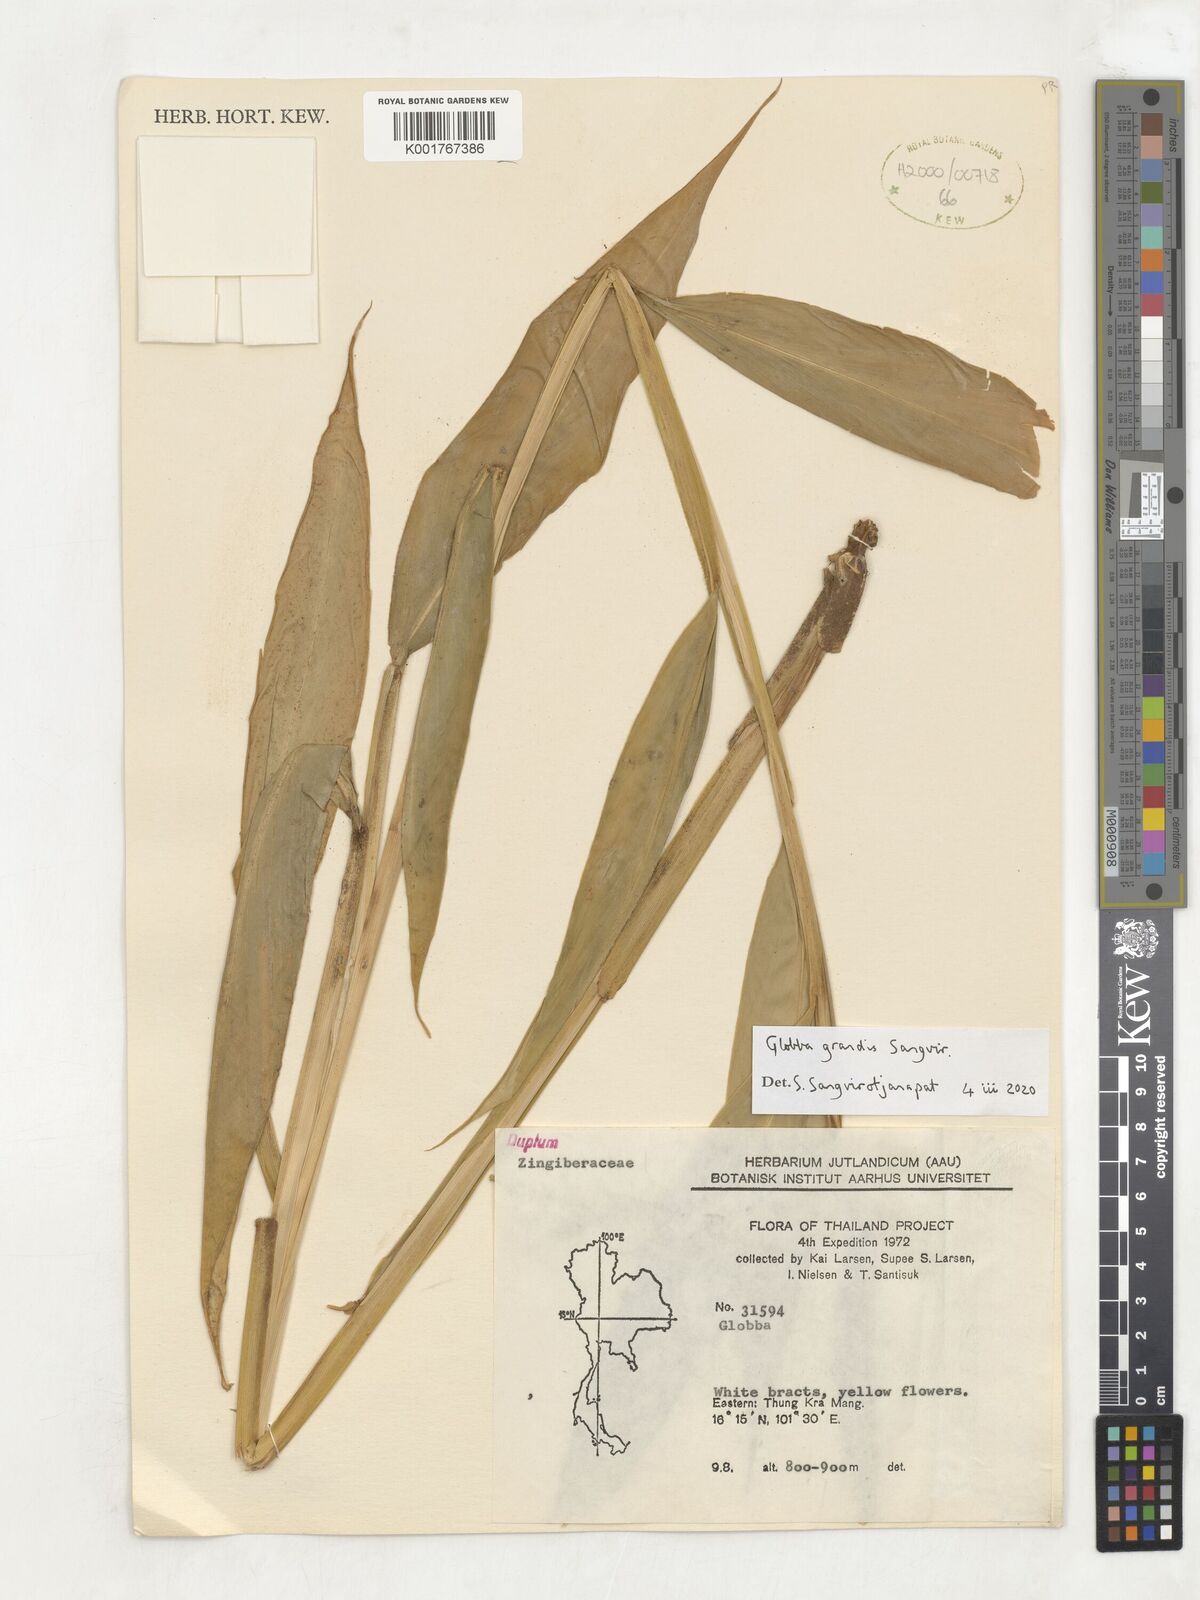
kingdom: Plantae
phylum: Tracheophyta
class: Liliopsida
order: Zingiberales
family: Zingiberaceae
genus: Globba
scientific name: Globba
